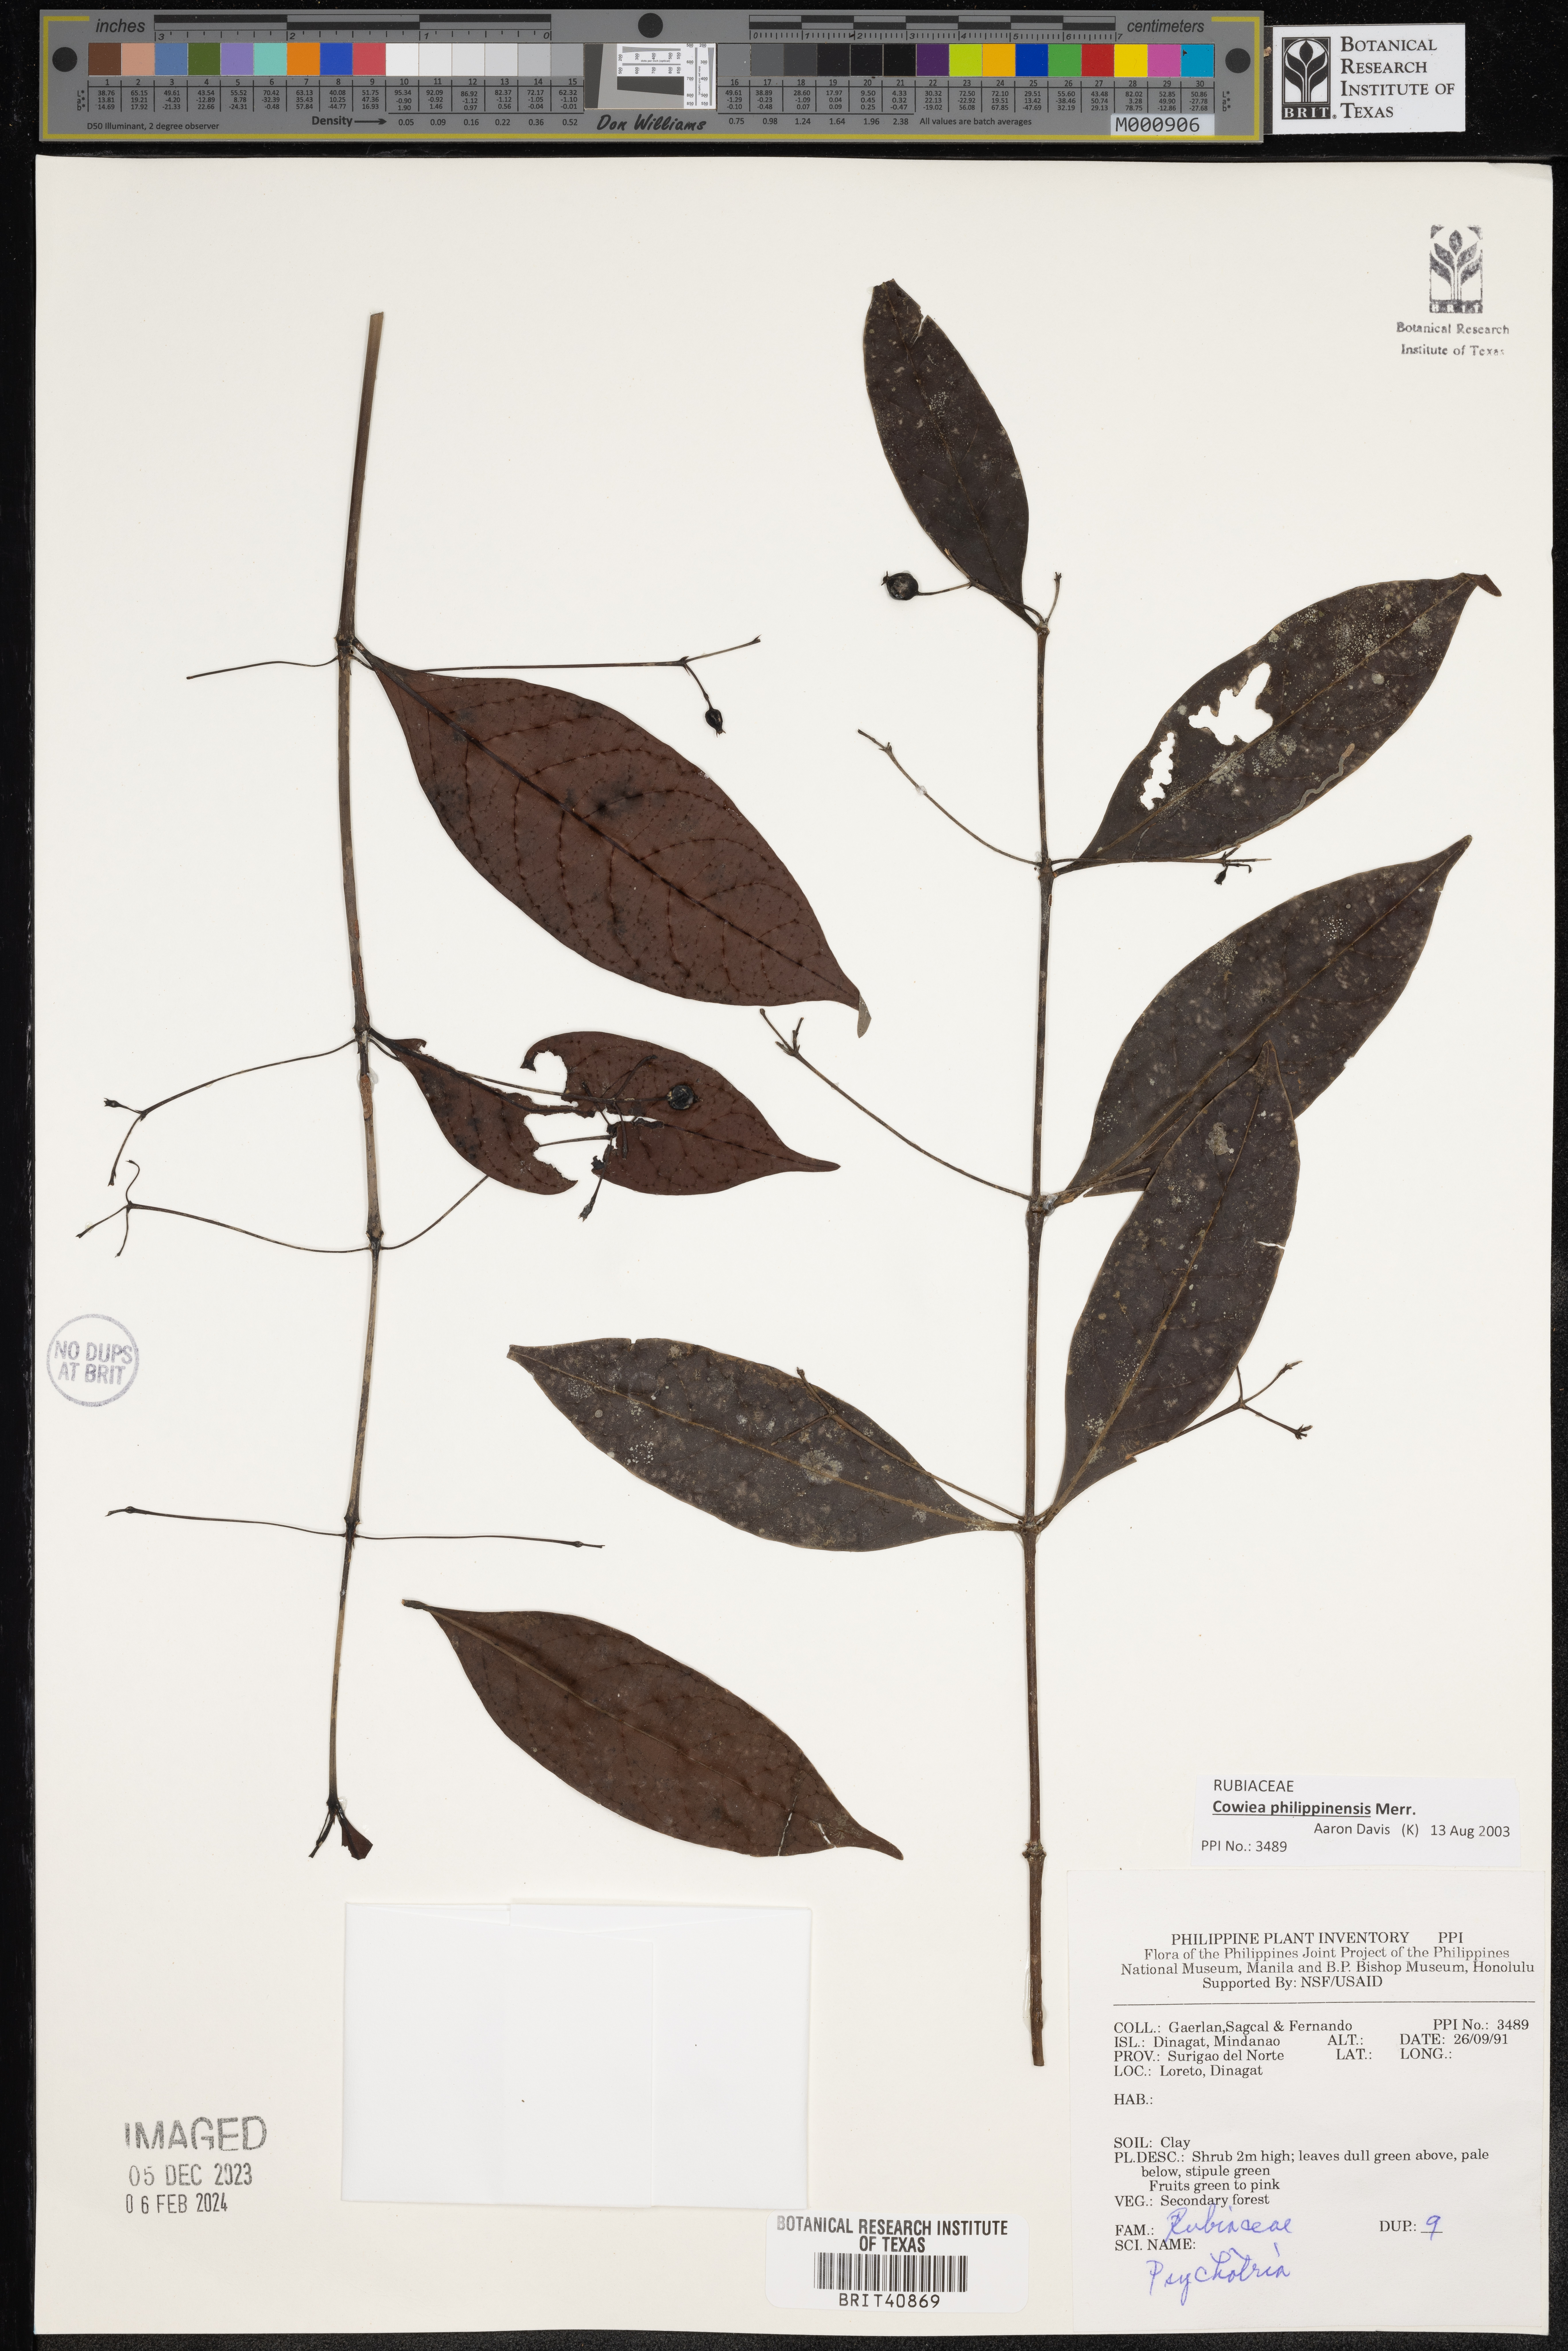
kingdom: Plantae
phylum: Tracheophyta
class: Magnoliopsida
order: Gentianales
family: Rubiaceae
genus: Psychotria
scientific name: Psychotria
